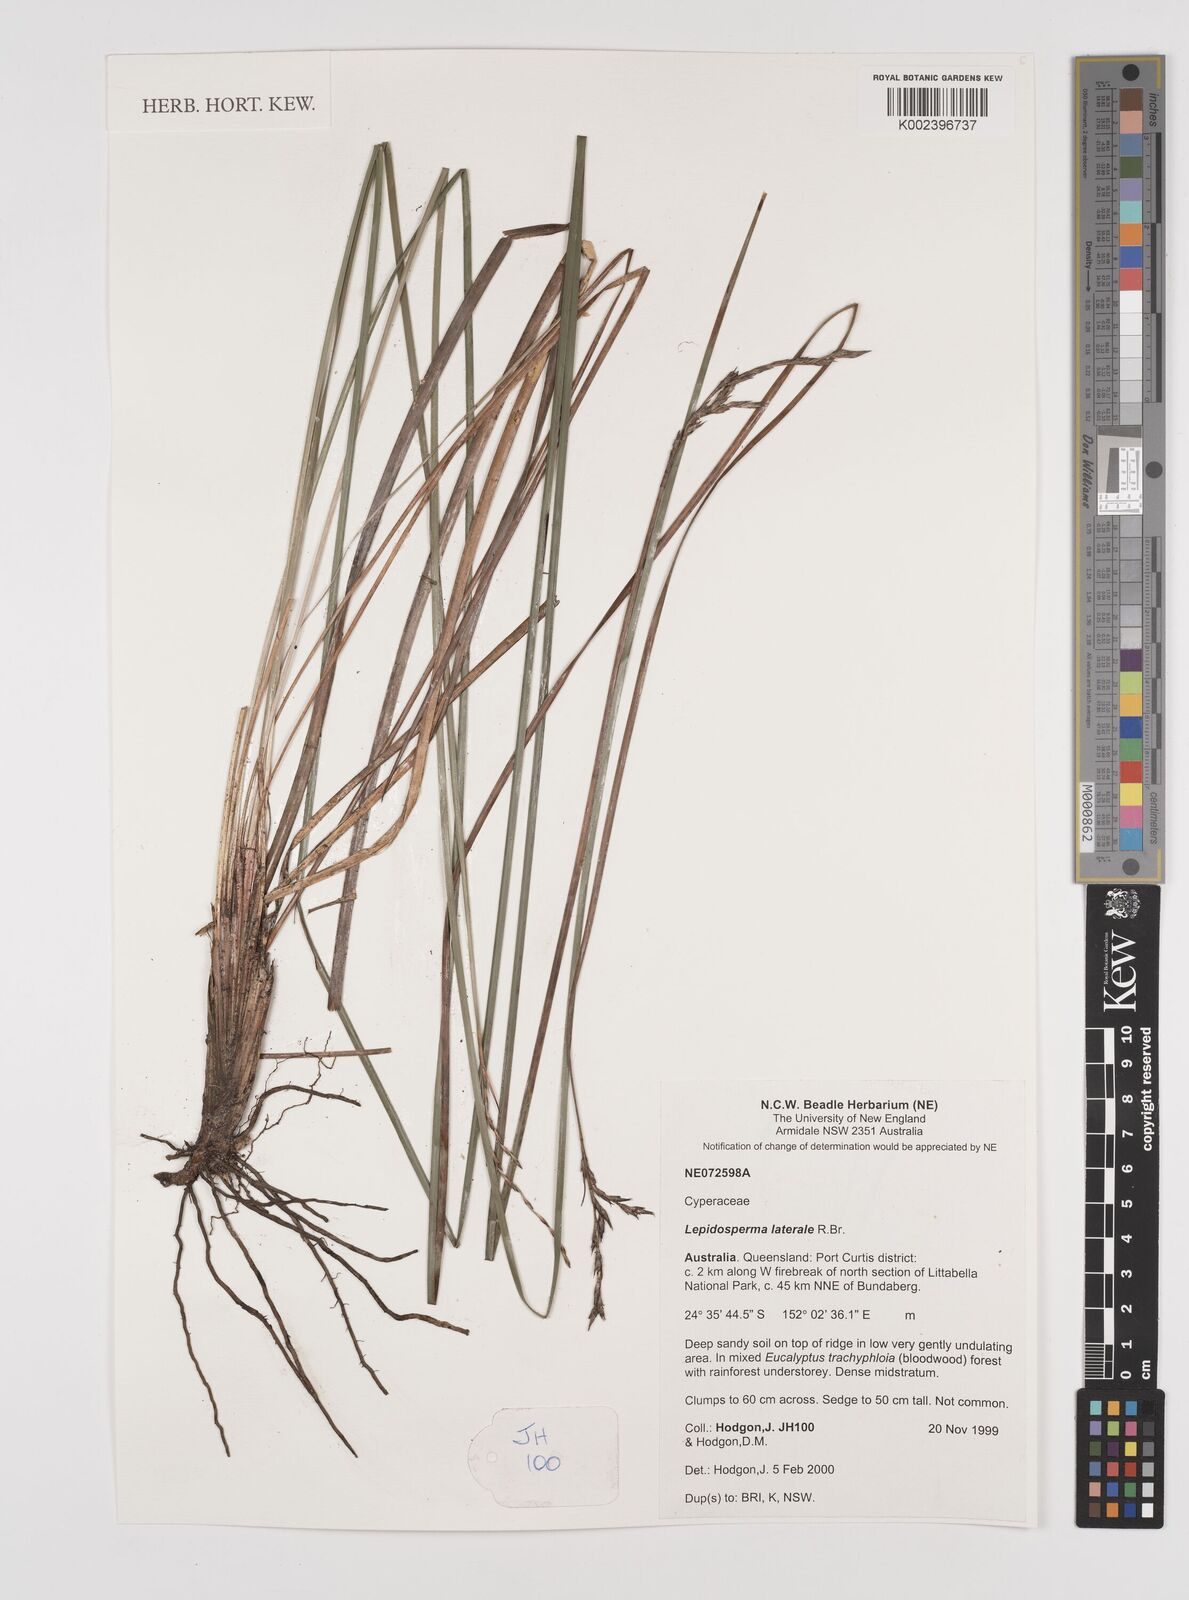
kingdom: Plantae
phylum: Tracheophyta
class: Liliopsida
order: Poales
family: Cyperaceae
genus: Lepidosperma
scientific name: Lepidosperma laterale
